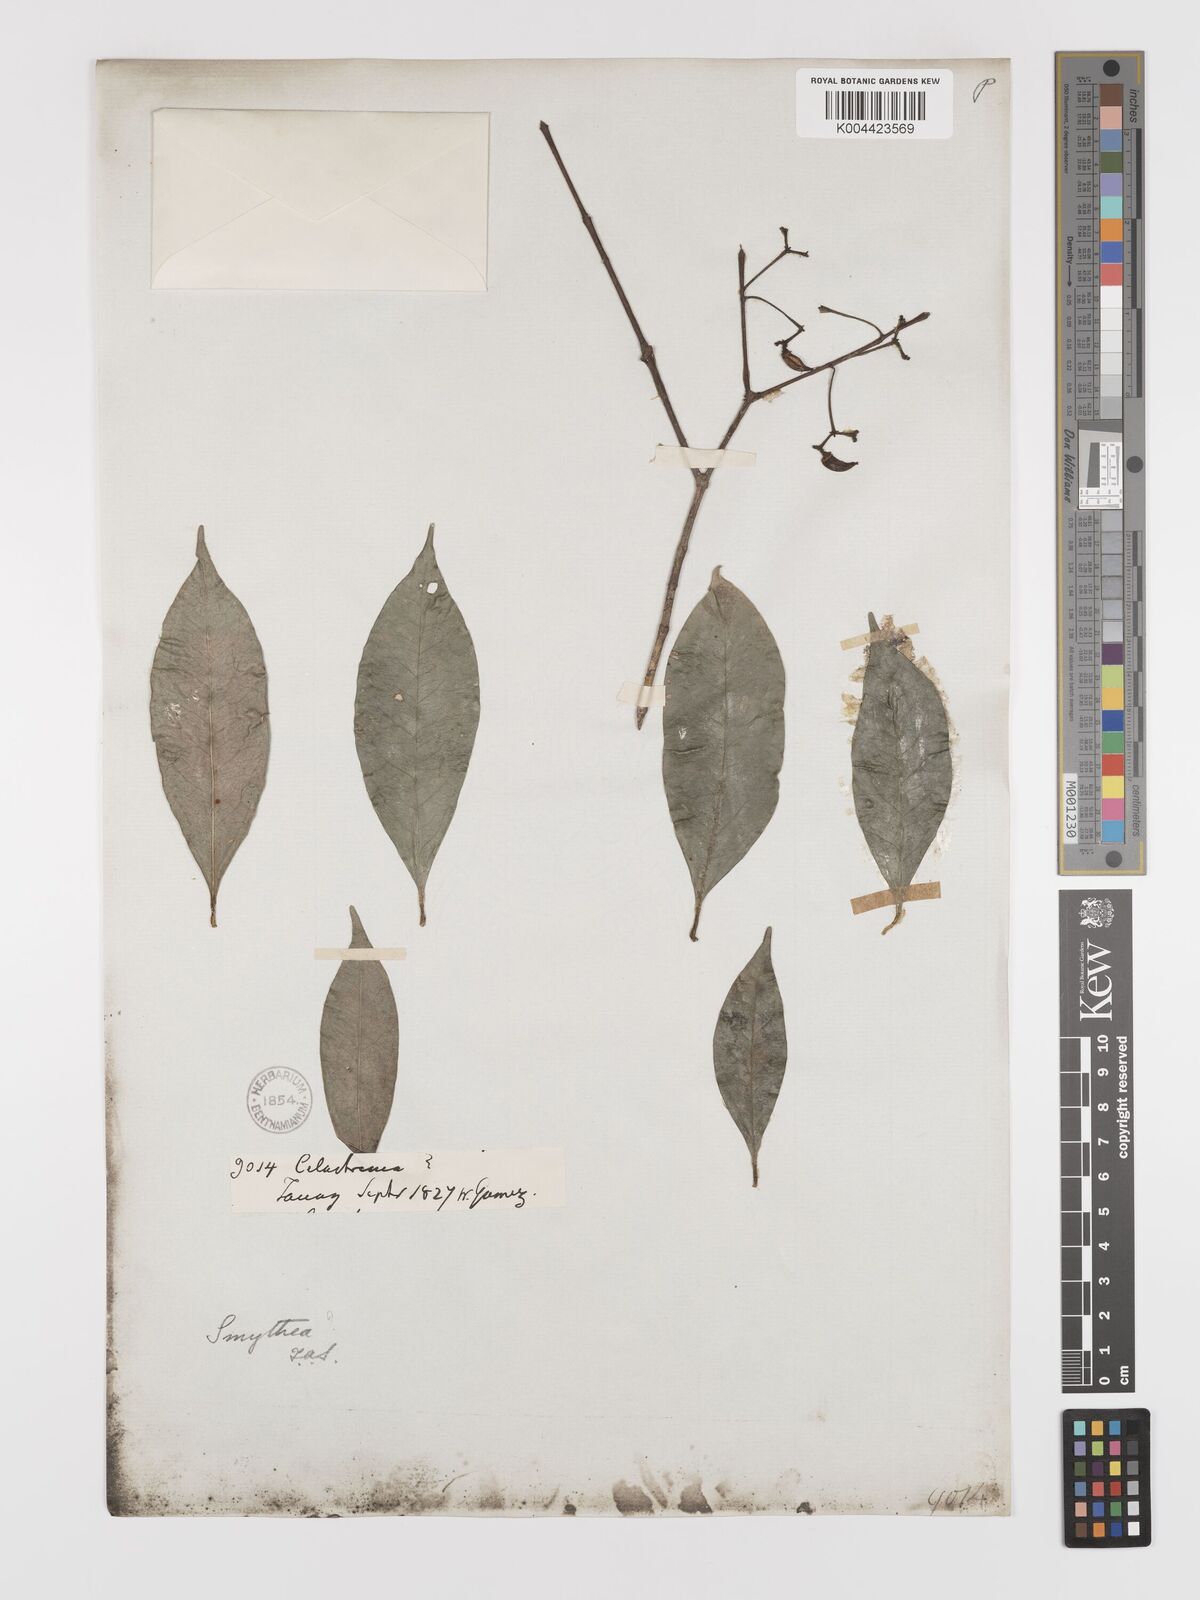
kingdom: Plantae
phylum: Tracheophyta
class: Magnoliopsida
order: Celastrales
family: Celastraceae
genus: Microtropis
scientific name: Microtropis bivalvis
